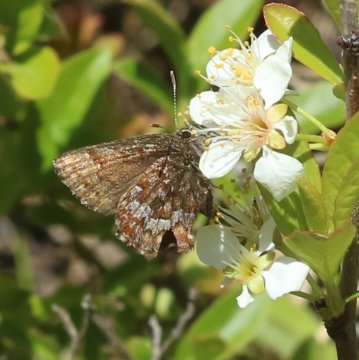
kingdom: Animalia
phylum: Arthropoda
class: Insecta
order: Lepidoptera
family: Lycaenidae
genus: Incisalia
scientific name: Incisalia niphon
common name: Eastern Pine Elfin
